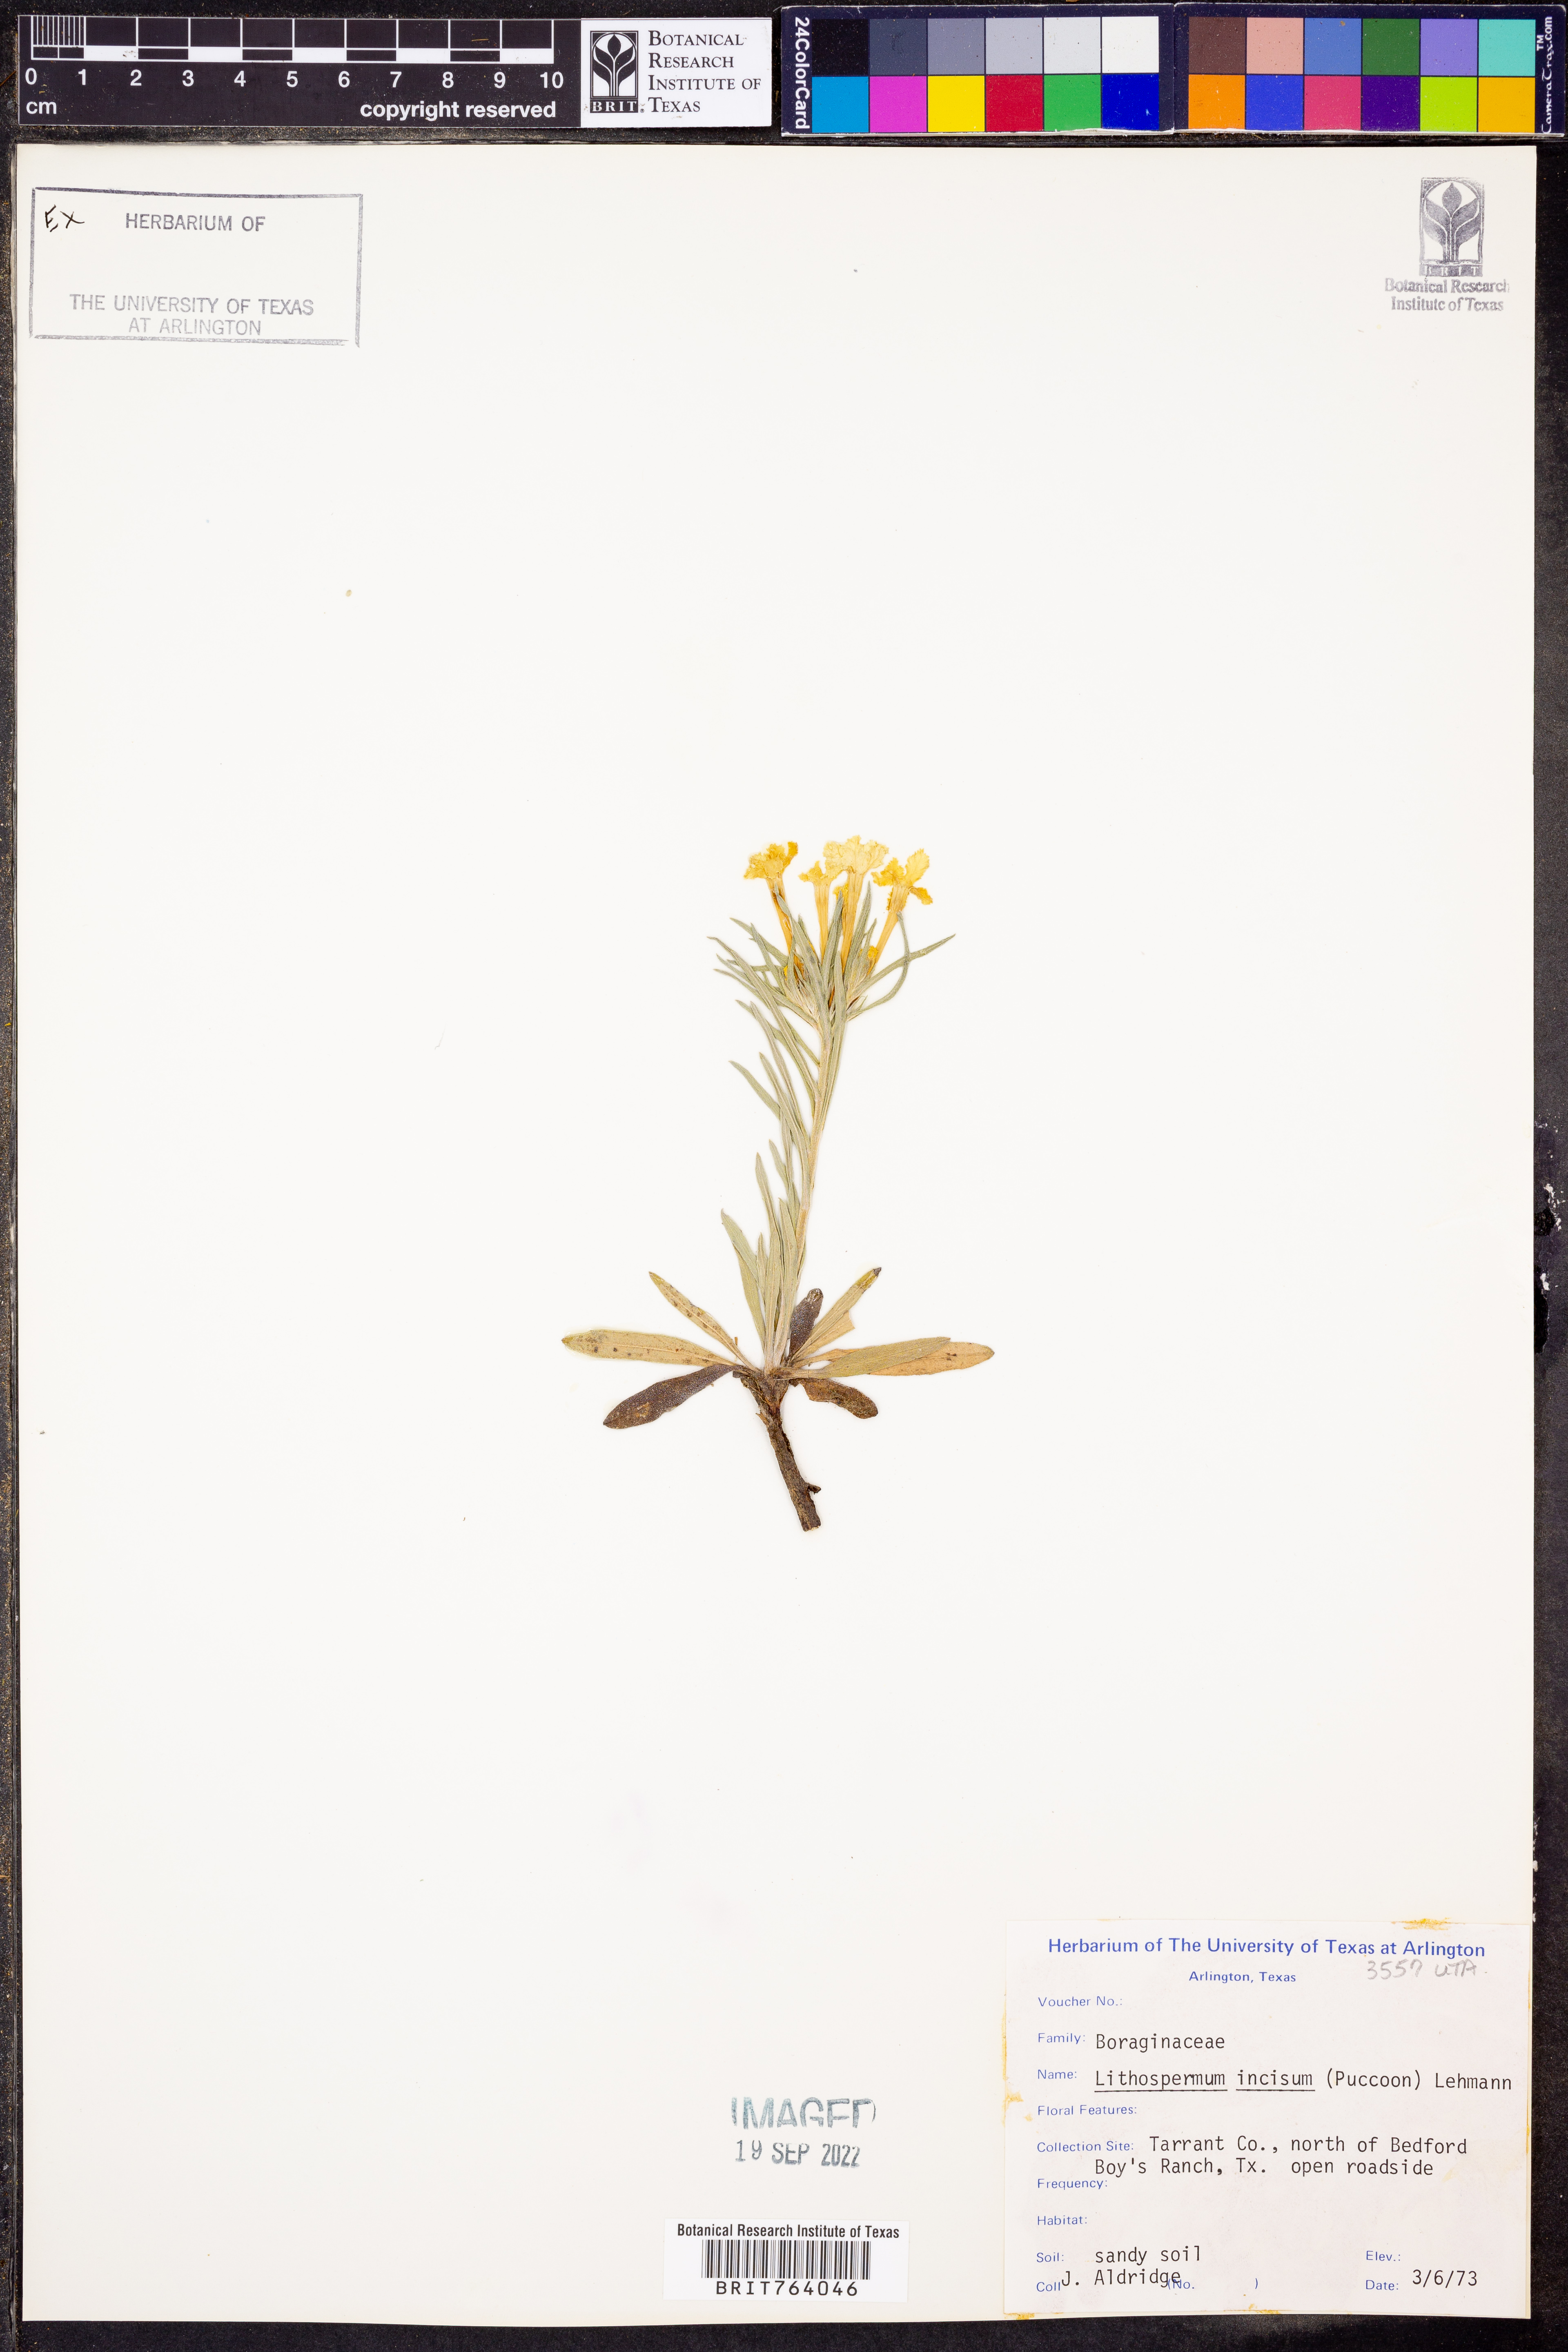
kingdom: Plantae
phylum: Tracheophyta
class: Magnoliopsida
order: Boraginales
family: Boraginaceae
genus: Lithospermum
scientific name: Lithospermum incisum
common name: Fringed gromwell
